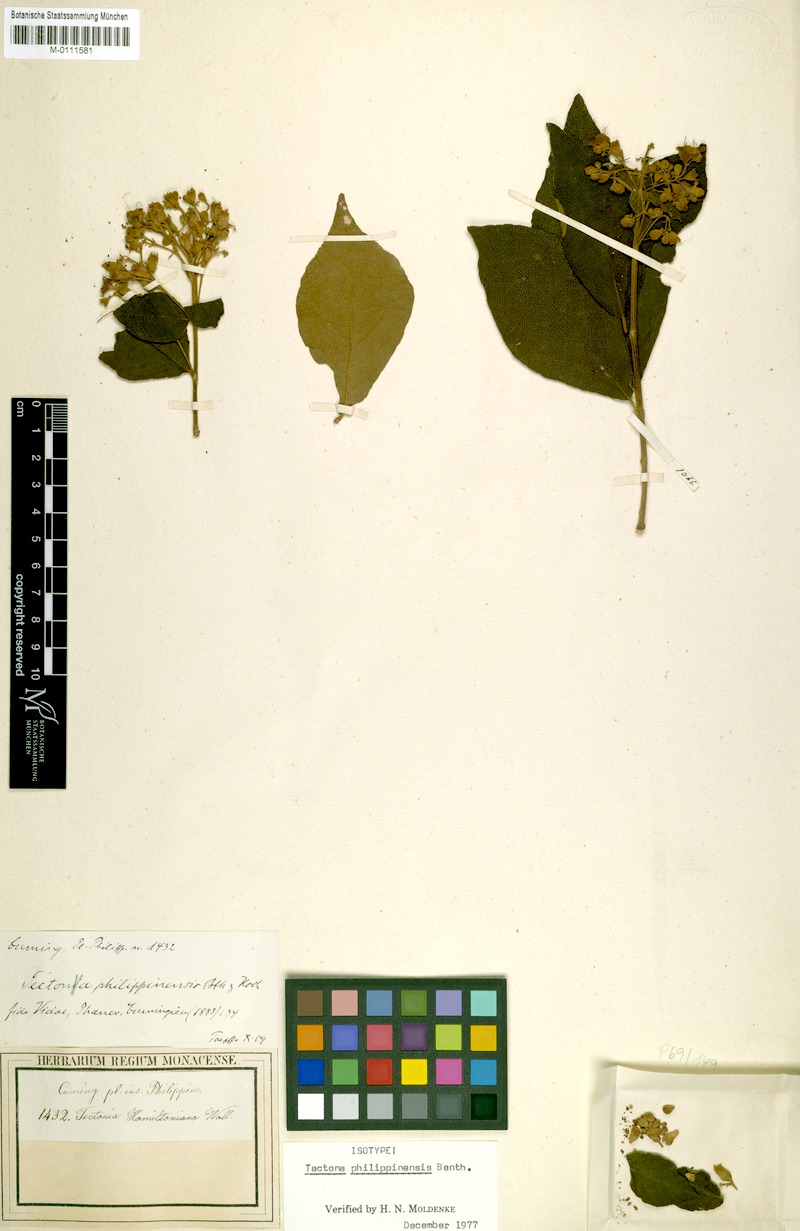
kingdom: Plantae
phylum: Tracheophyta
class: Magnoliopsida
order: Lamiales
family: Lamiaceae
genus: Tectona
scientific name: Tectona philippinensis
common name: Philippine teak
